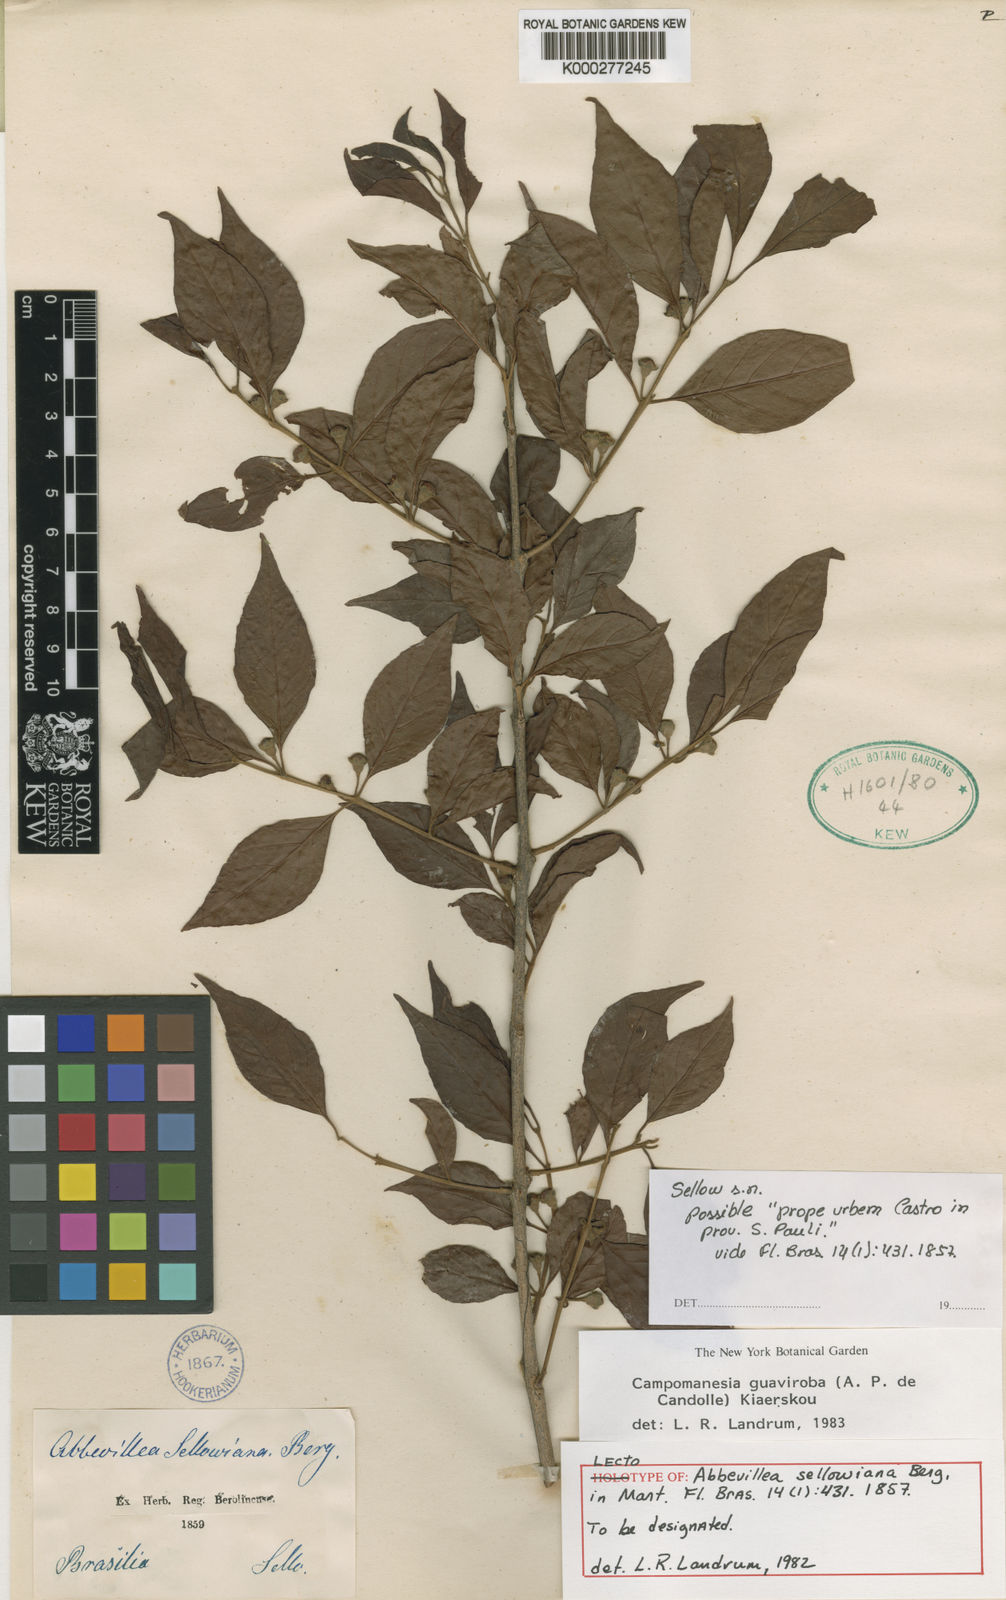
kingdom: Plantae
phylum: Tracheophyta
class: Magnoliopsida
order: Myrtales
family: Myrtaceae
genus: Campomanesia
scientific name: Campomanesia
